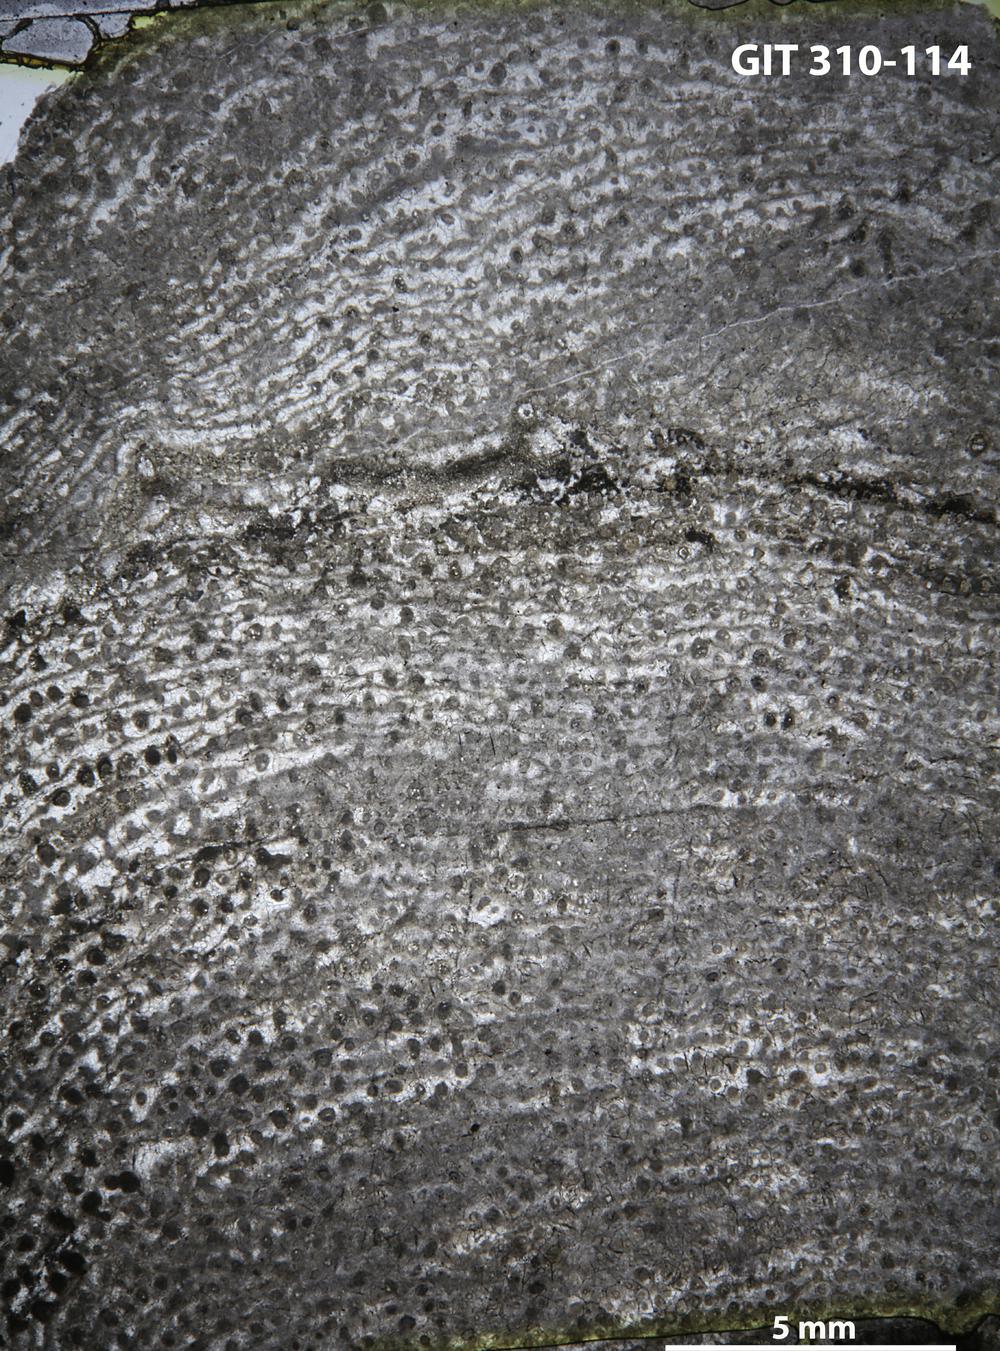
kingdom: Animalia
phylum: Porifera
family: Labechiidae
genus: Labechiella
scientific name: Labechiella regularis
